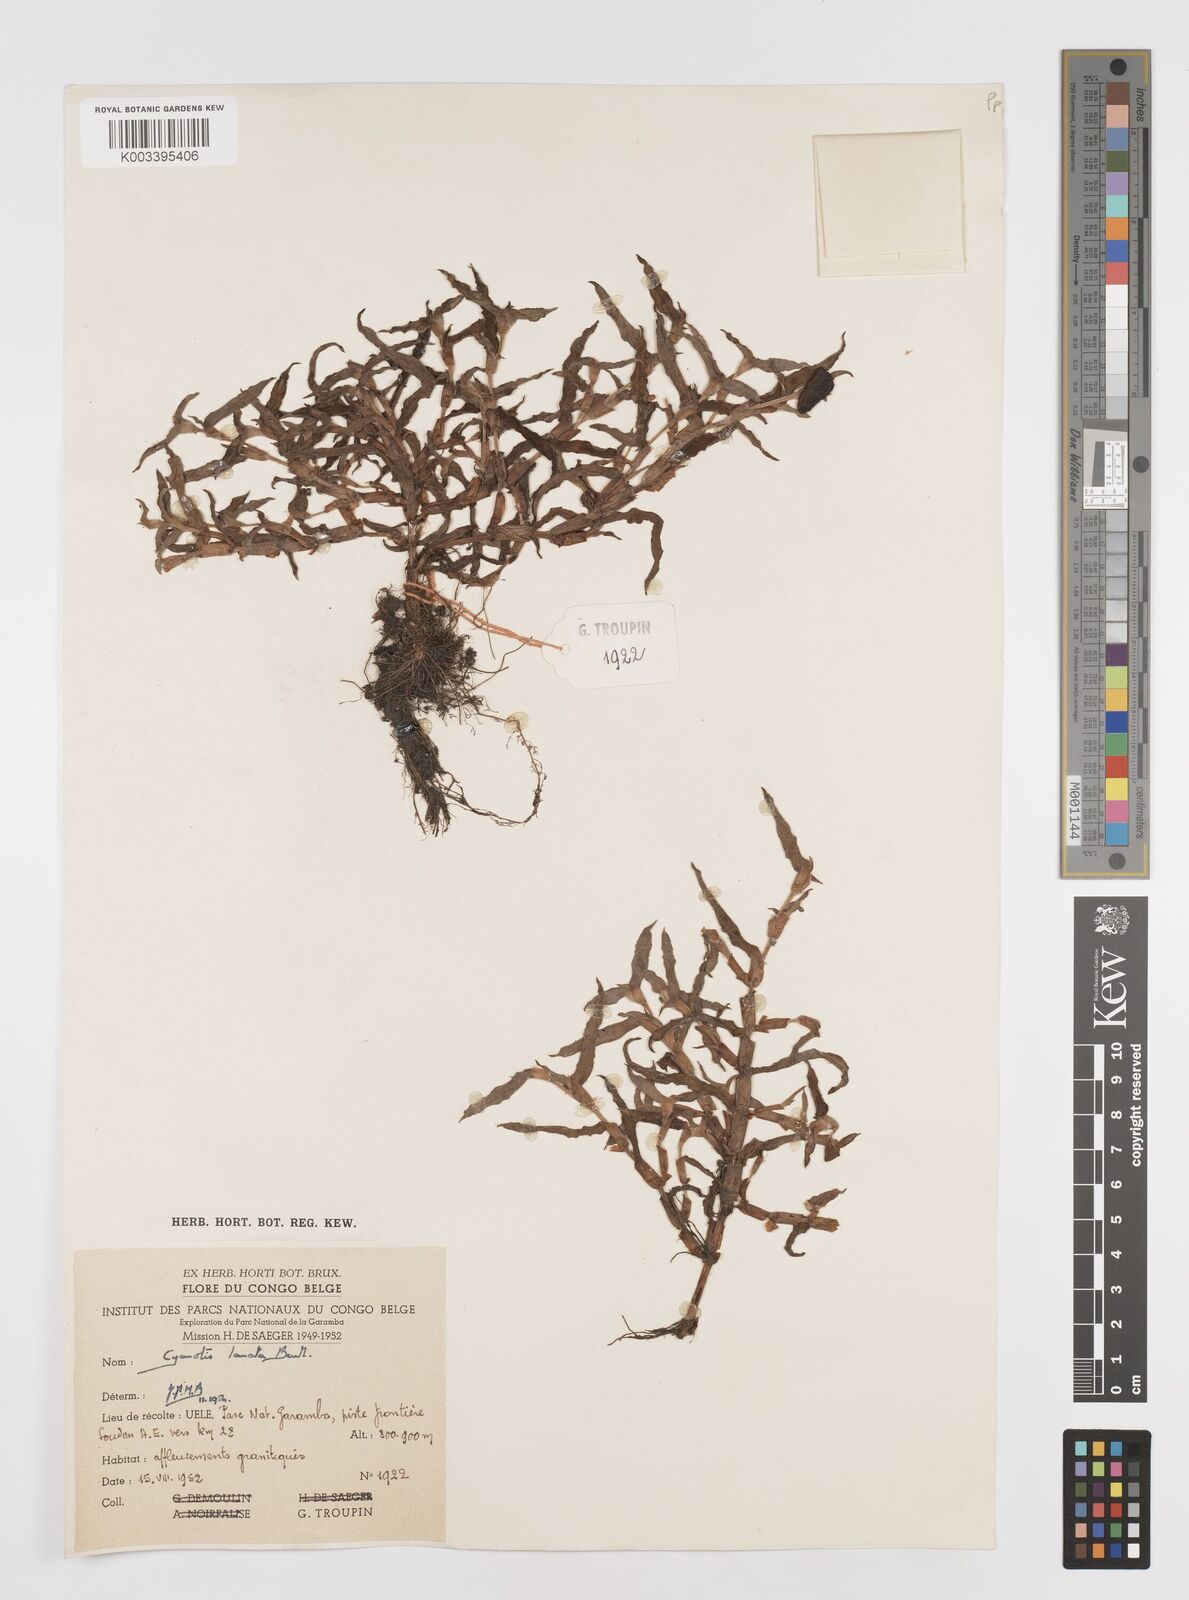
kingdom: Plantae
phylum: Tracheophyta
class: Liliopsida
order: Commelinales
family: Commelinaceae
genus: Cyanotis
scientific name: Cyanotis lanata
